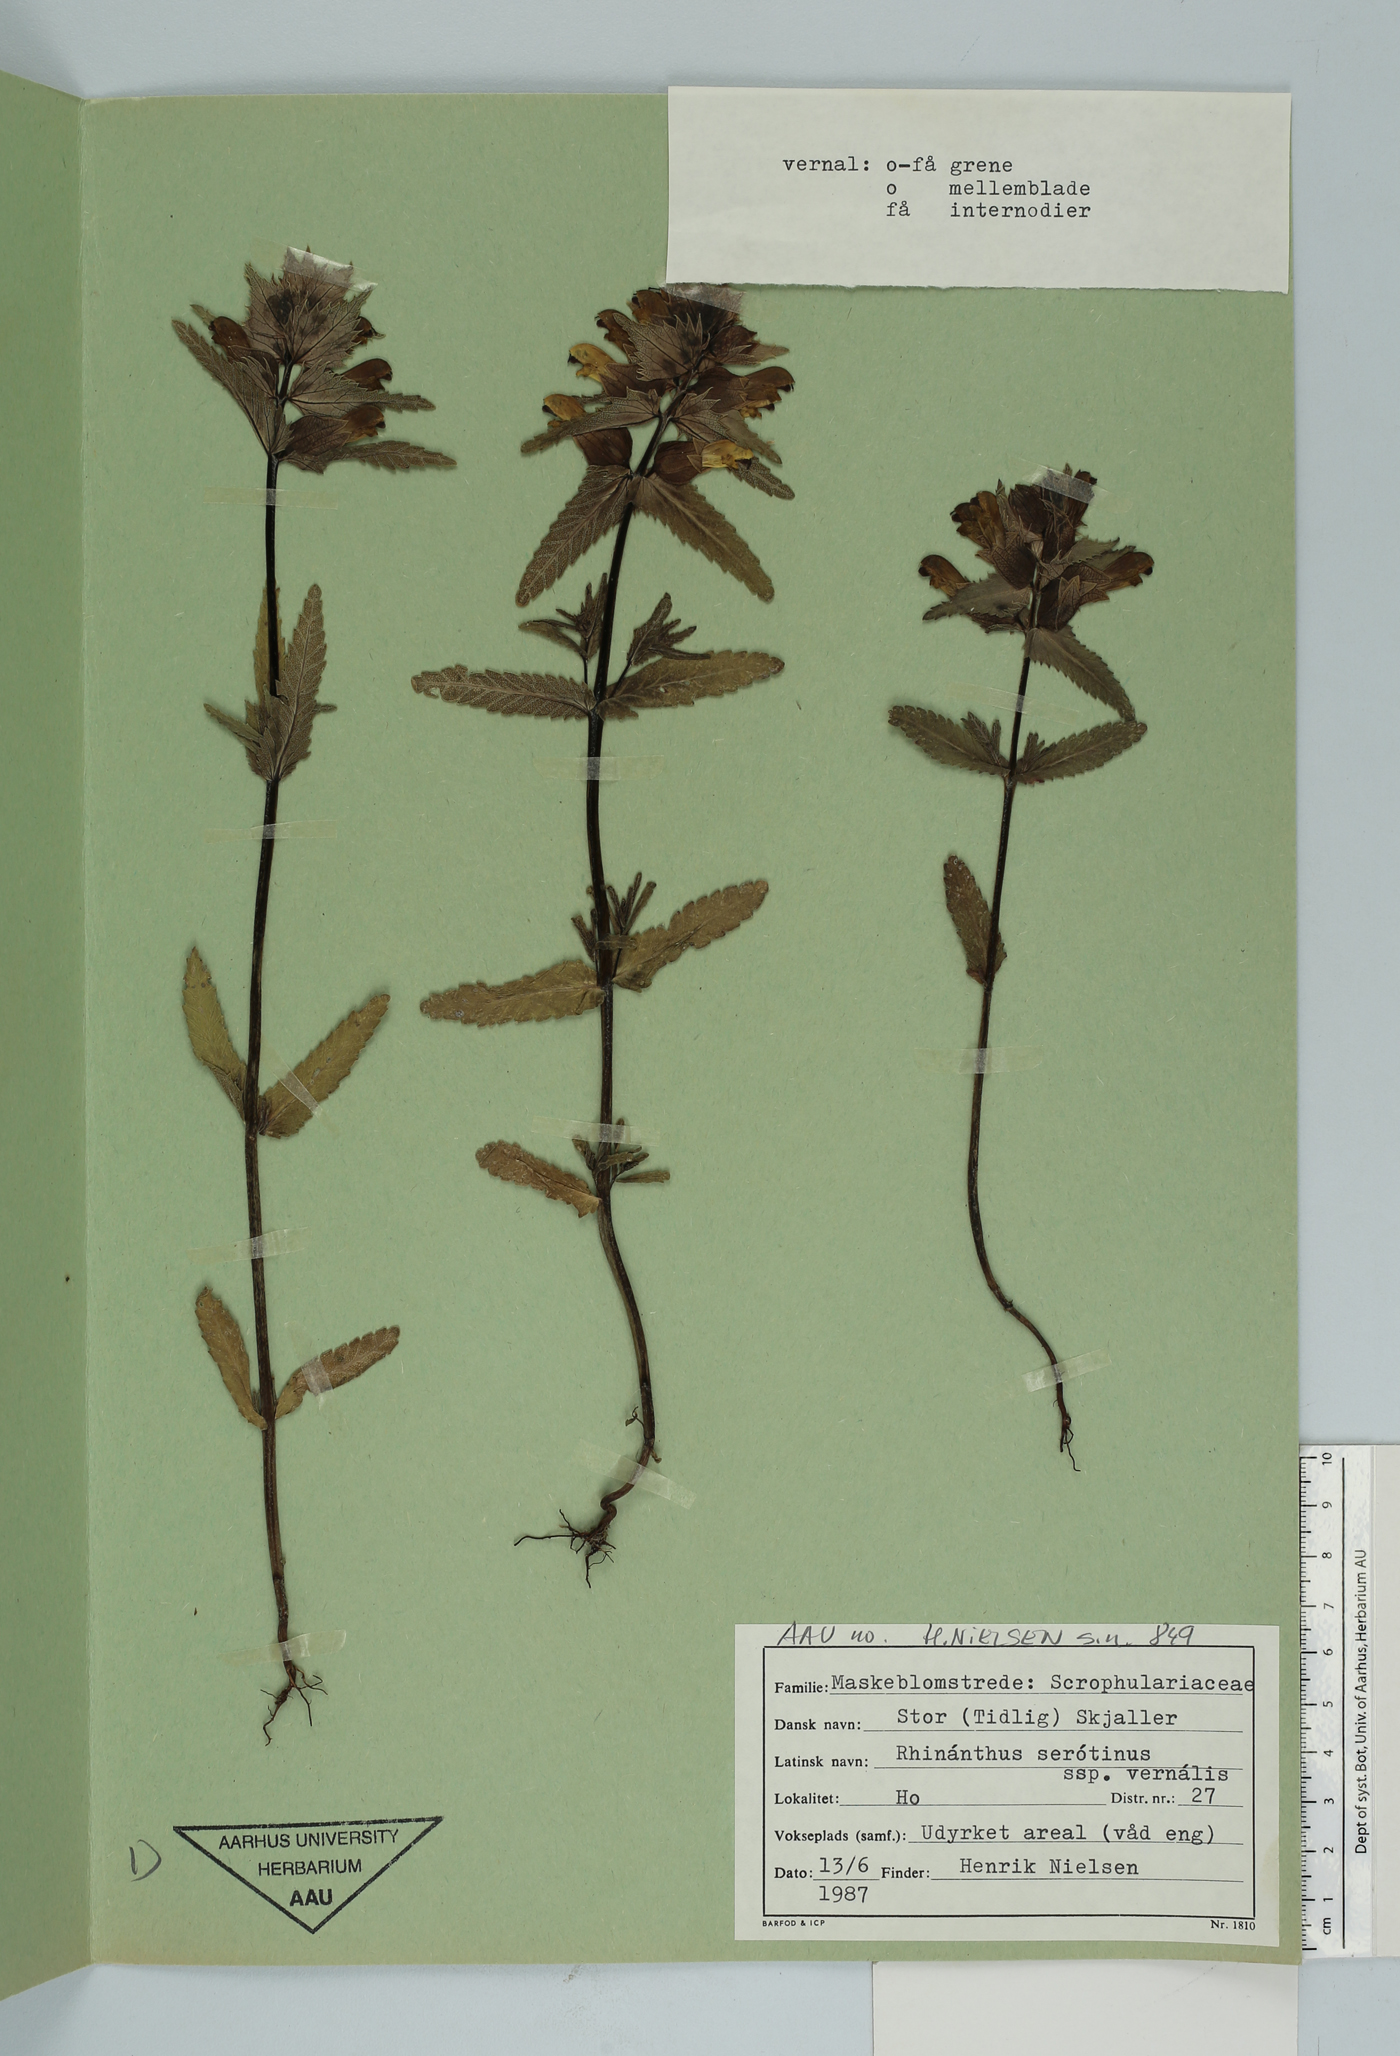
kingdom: Plantae
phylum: Tracheophyta
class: Magnoliopsida
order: Lamiales
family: Orobanchaceae
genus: Rhinanthus
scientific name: Rhinanthus serotinus
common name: Late-flowering yellow rattle
